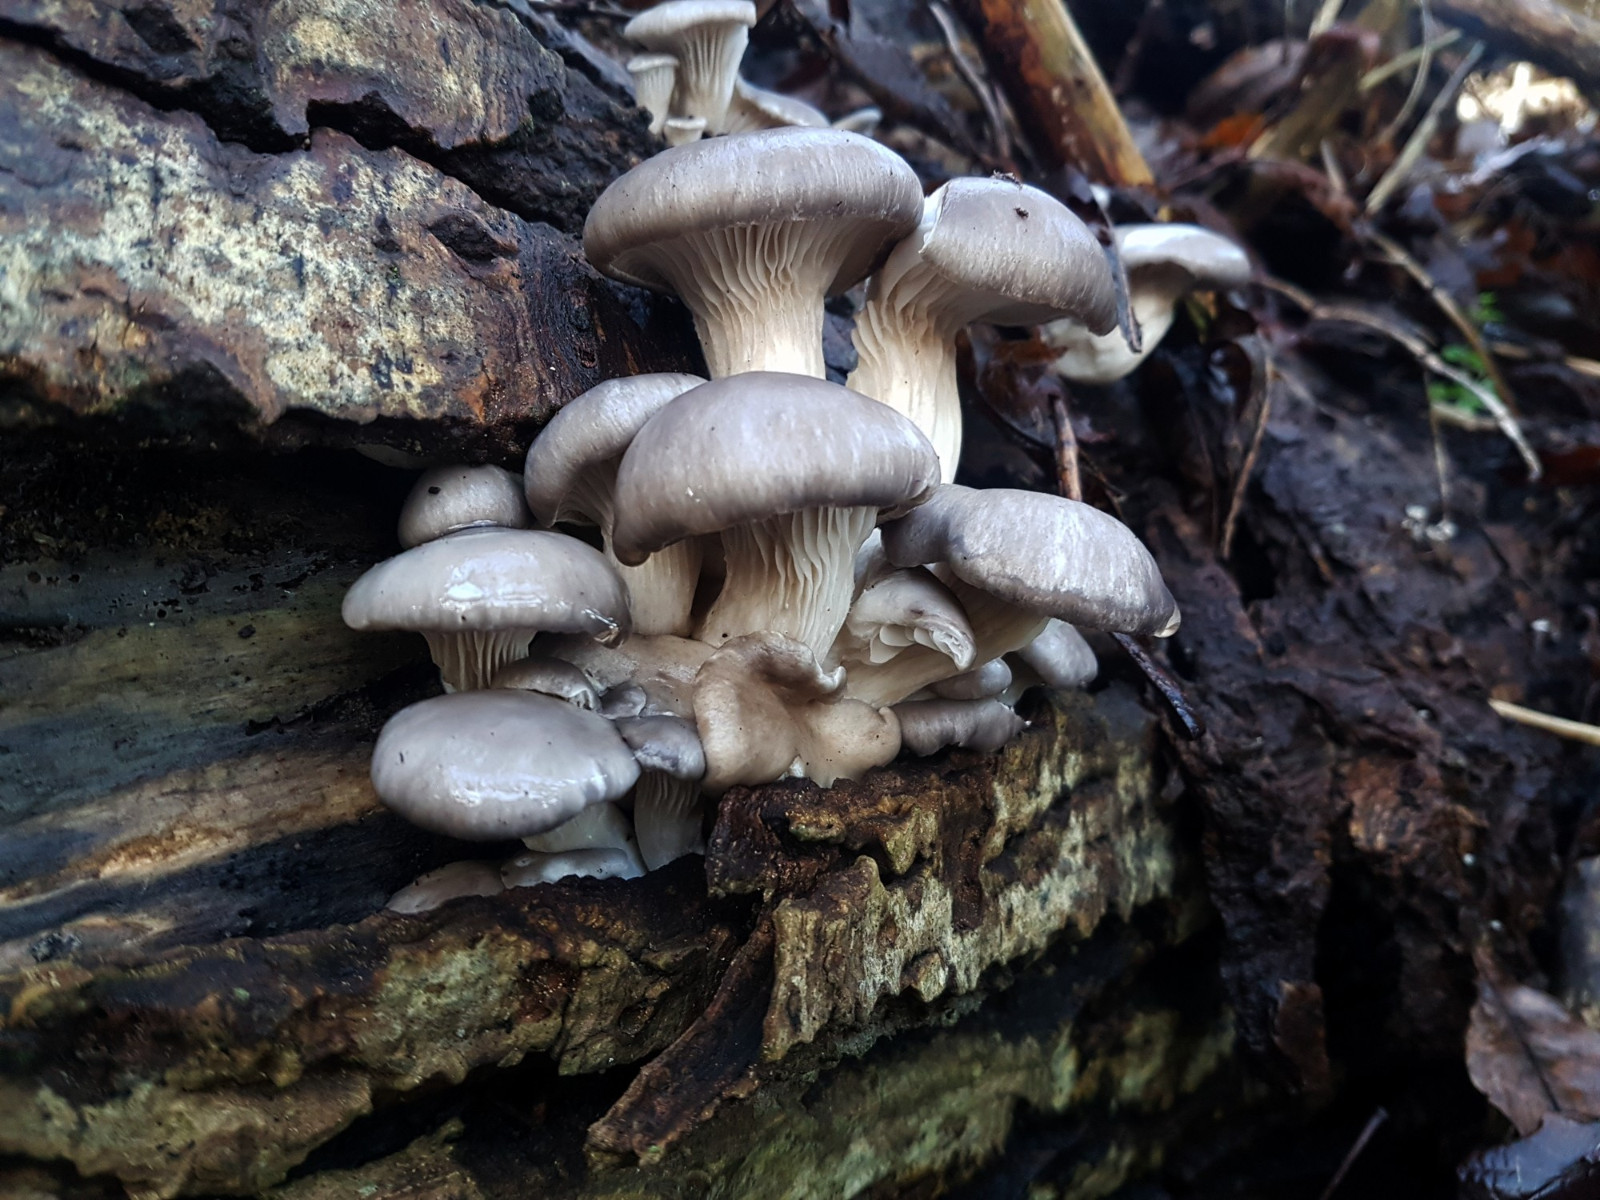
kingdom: Fungi
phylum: Basidiomycota
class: Agaricomycetes
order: Agaricales
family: Pleurotaceae
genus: Pleurotus
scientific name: Pleurotus ostreatus
